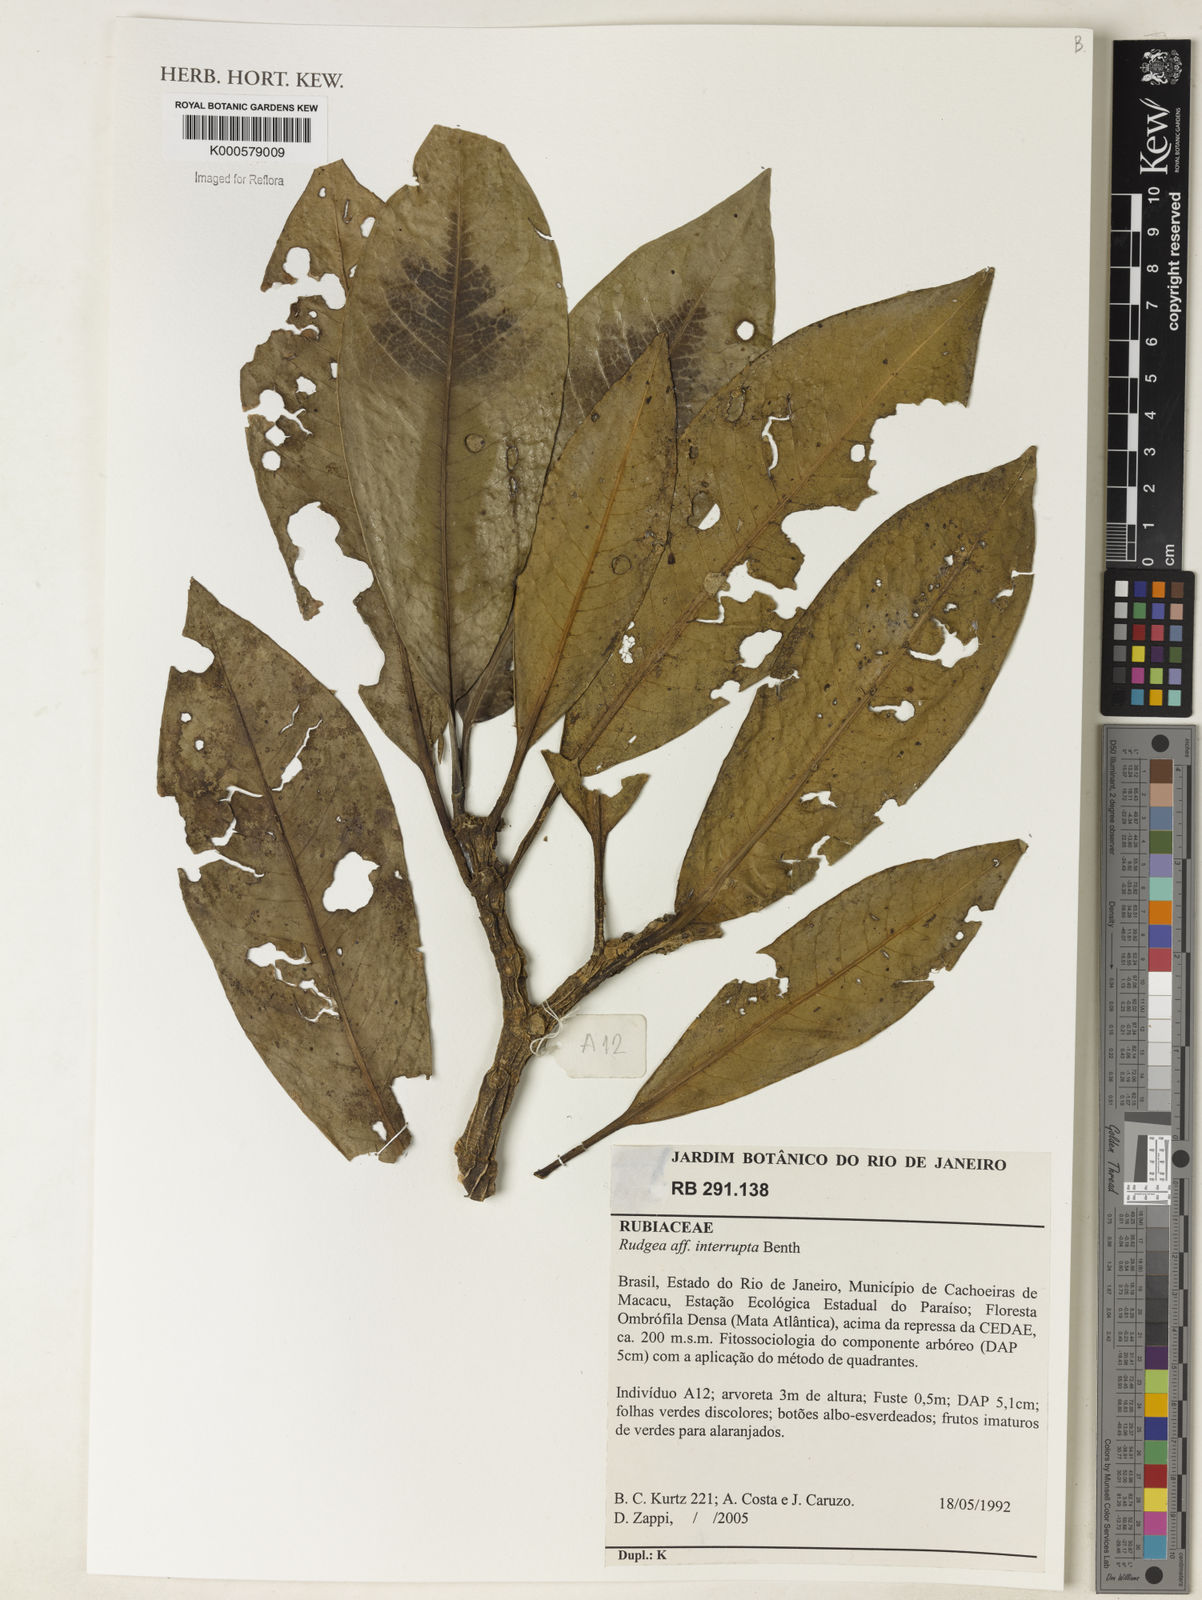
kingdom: Plantae
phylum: Tracheophyta
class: Magnoliopsida
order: Gentianales
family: Rubiaceae
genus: Rudgea
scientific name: Rudgea interrupta
